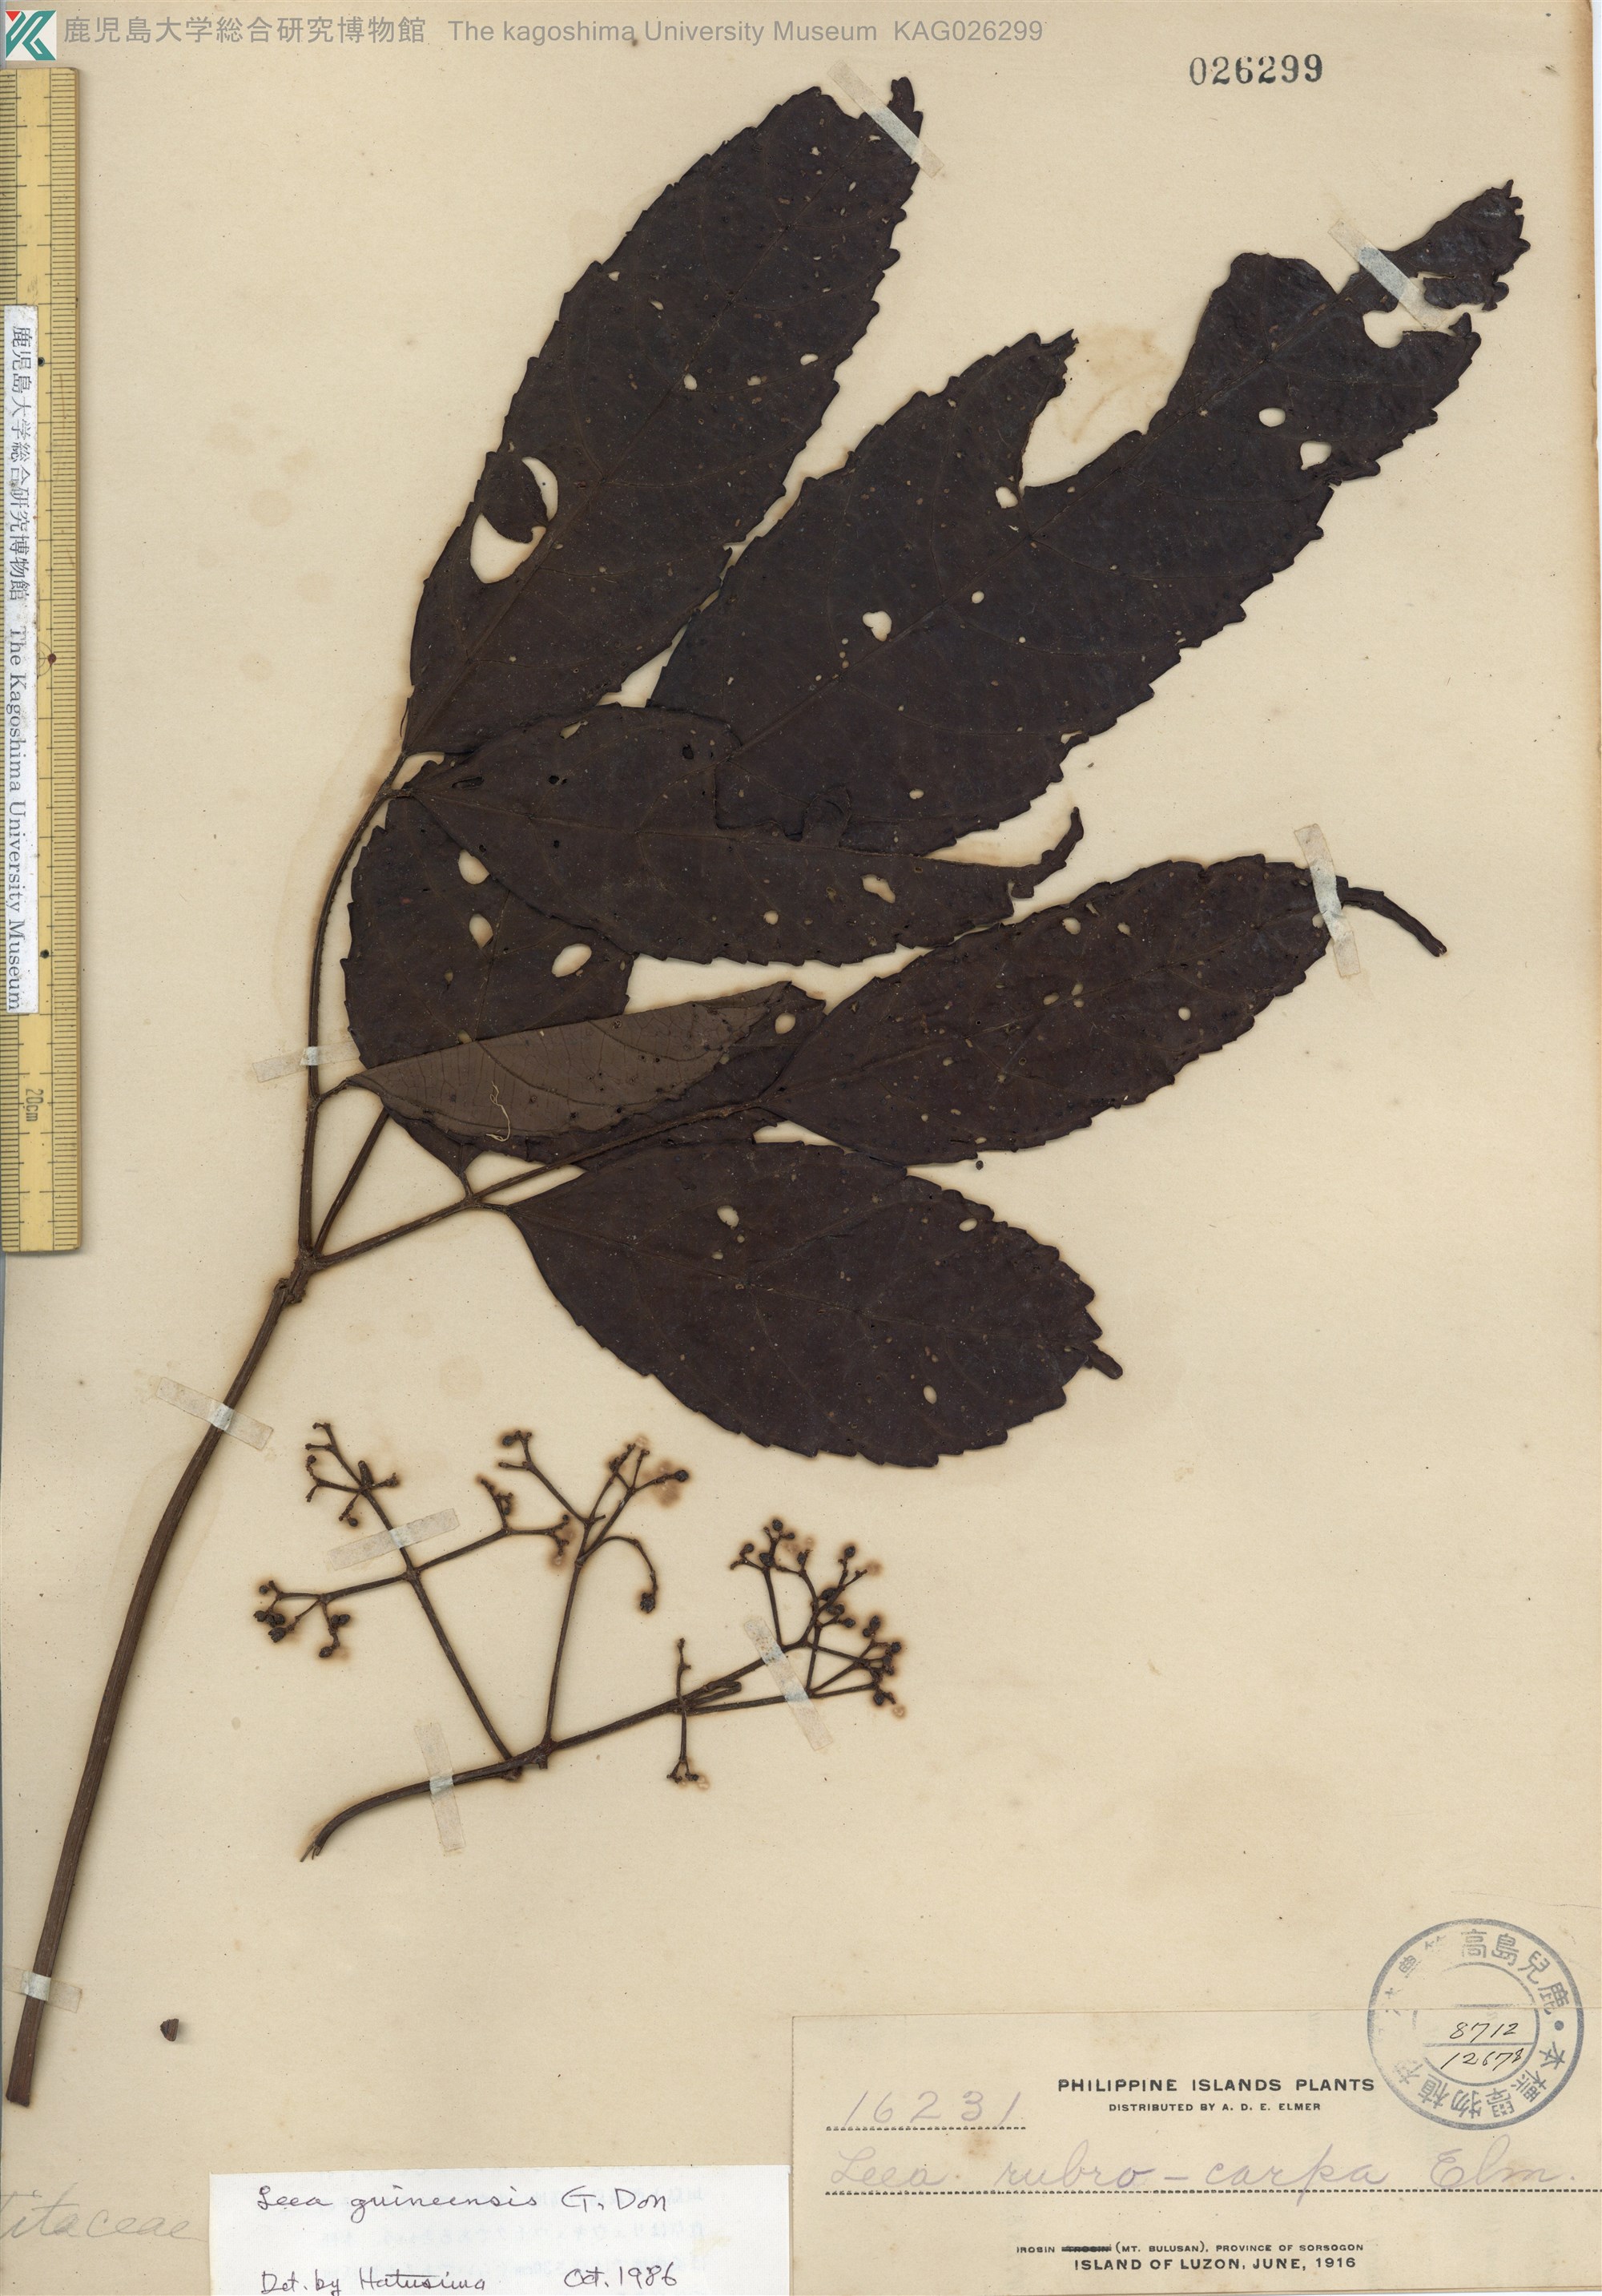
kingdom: Plantae
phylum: Tracheophyta
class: Magnoliopsida
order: Vitales
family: Vitaceae
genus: Leea
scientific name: Leea guineensis
